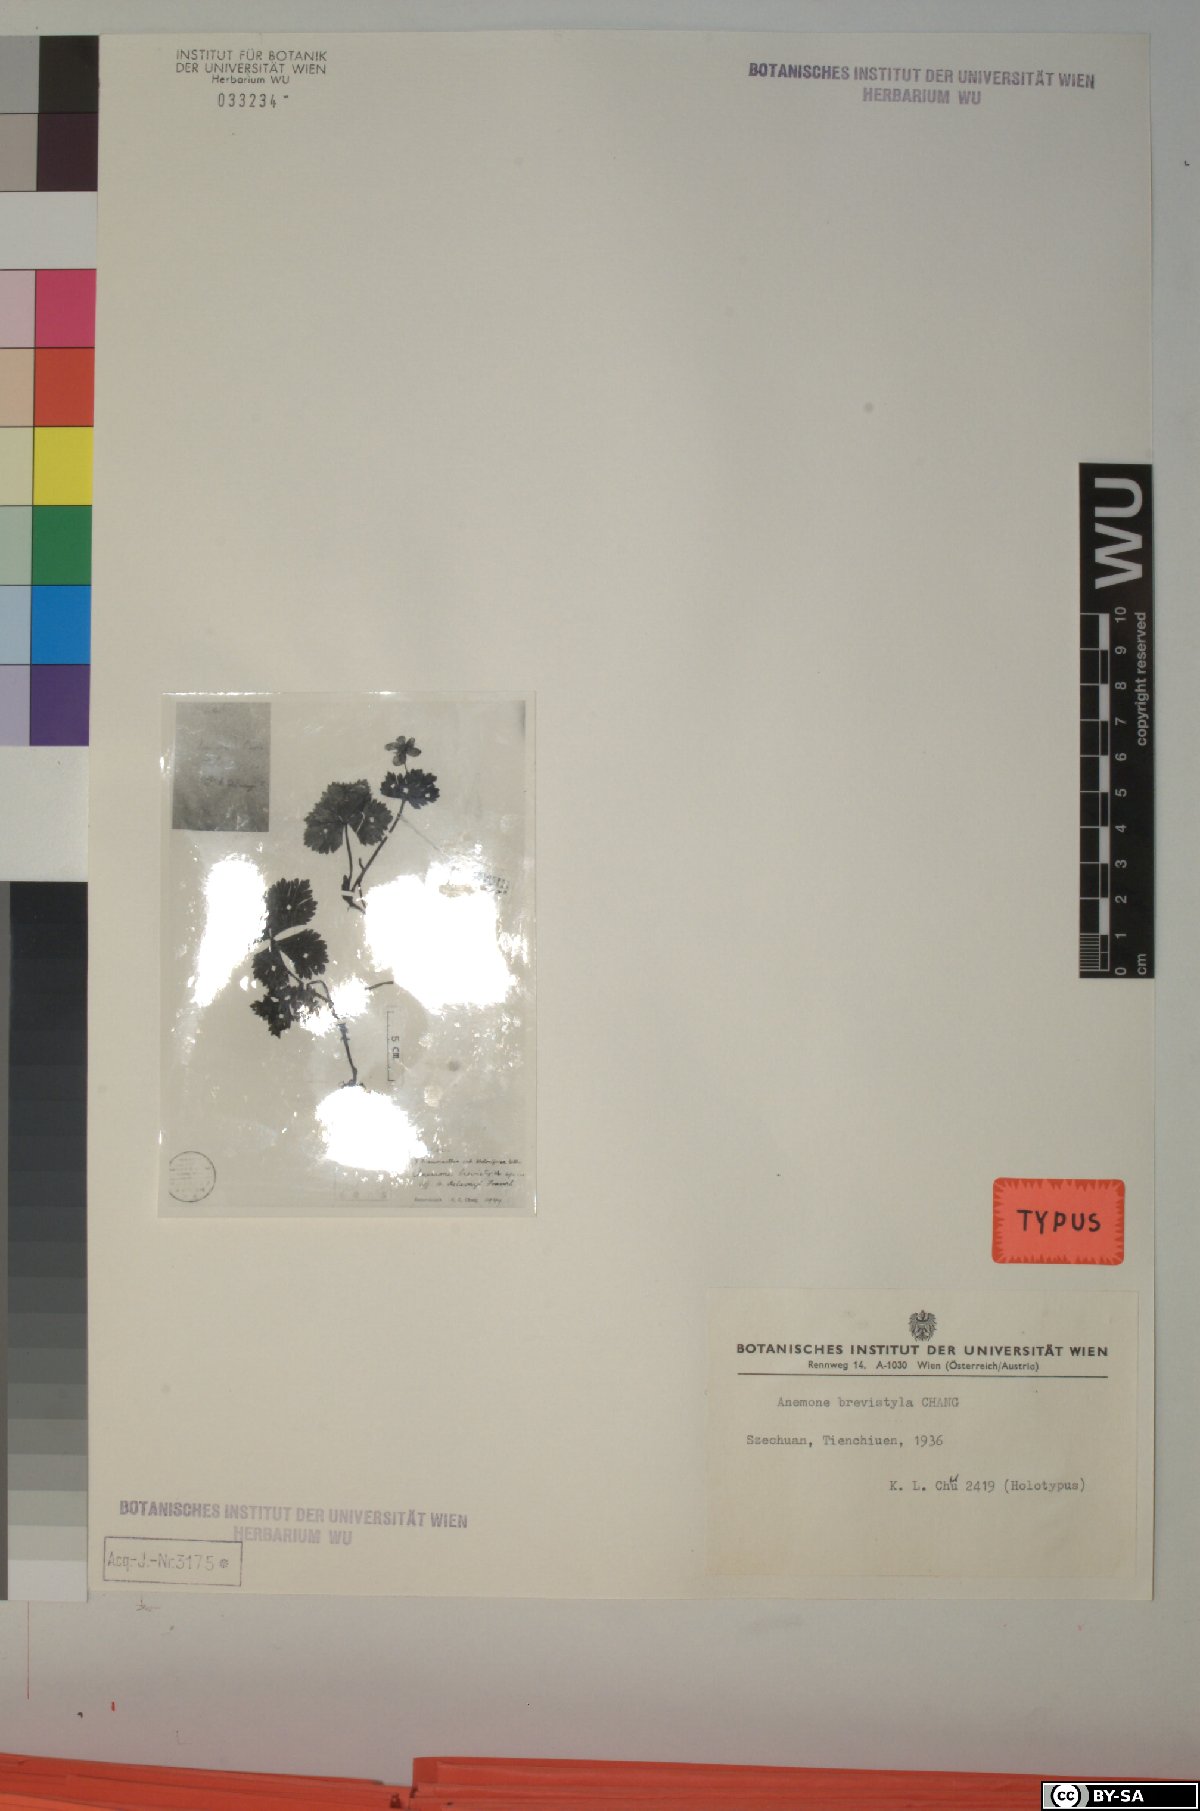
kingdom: Plantae
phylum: Tracheophyta
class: Magnoliopsida
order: Ranunculales
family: Ranunculaceae
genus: Anemone
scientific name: Anemone brevistyla
